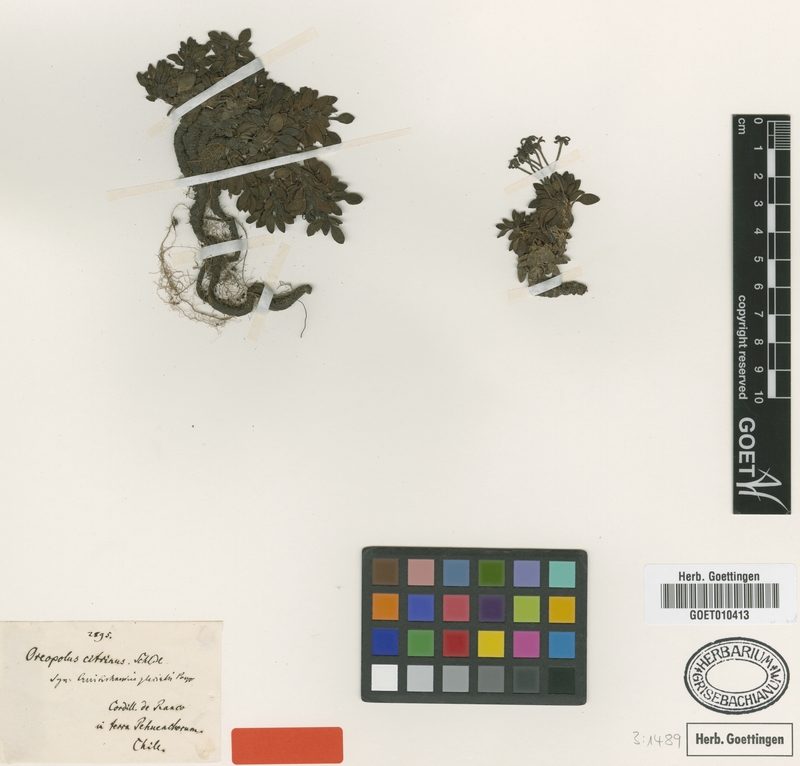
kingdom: Plantae
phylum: Tracheophyta
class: Magnoliopsida
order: Gentianales
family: Rubiaceae
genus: Oreopolus
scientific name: Oreopolus glacialis
